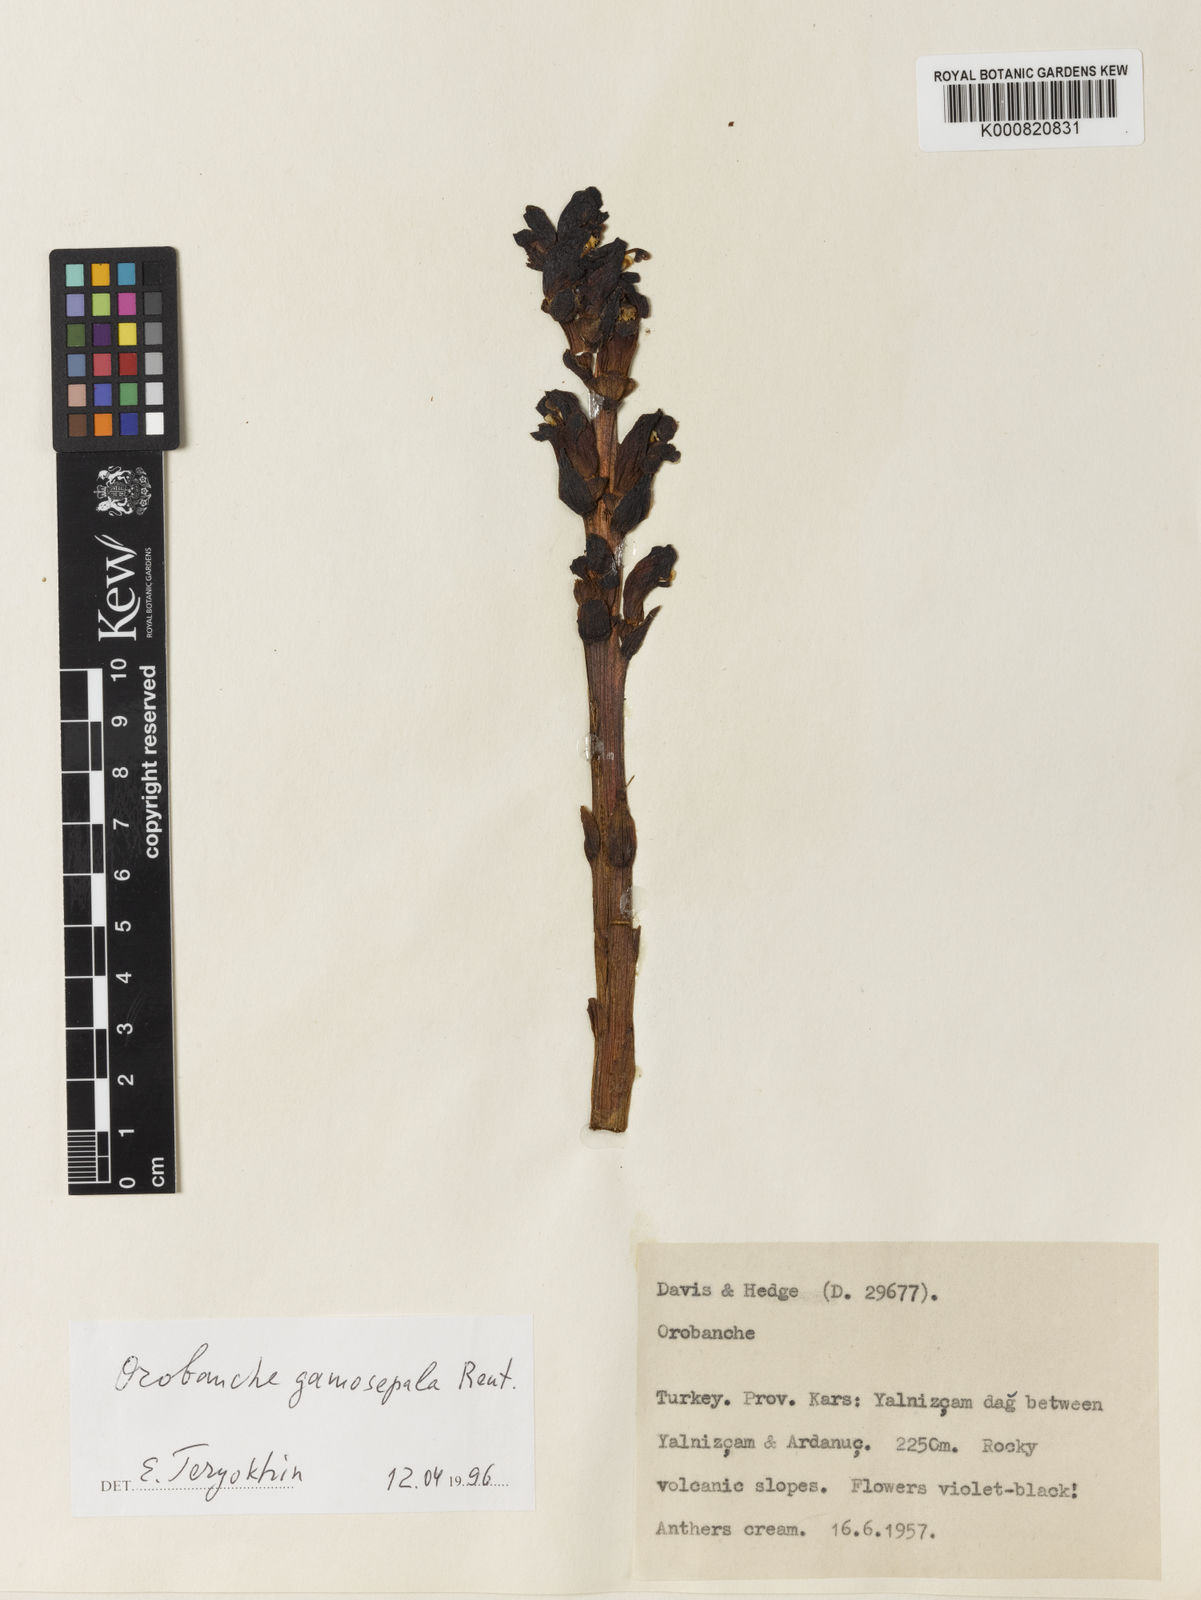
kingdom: Plantae
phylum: Tracheophyta
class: Magnoliopsida
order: Lamiales
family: Orobanchaceae
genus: Orobanche
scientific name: Orobanche gamosepala
